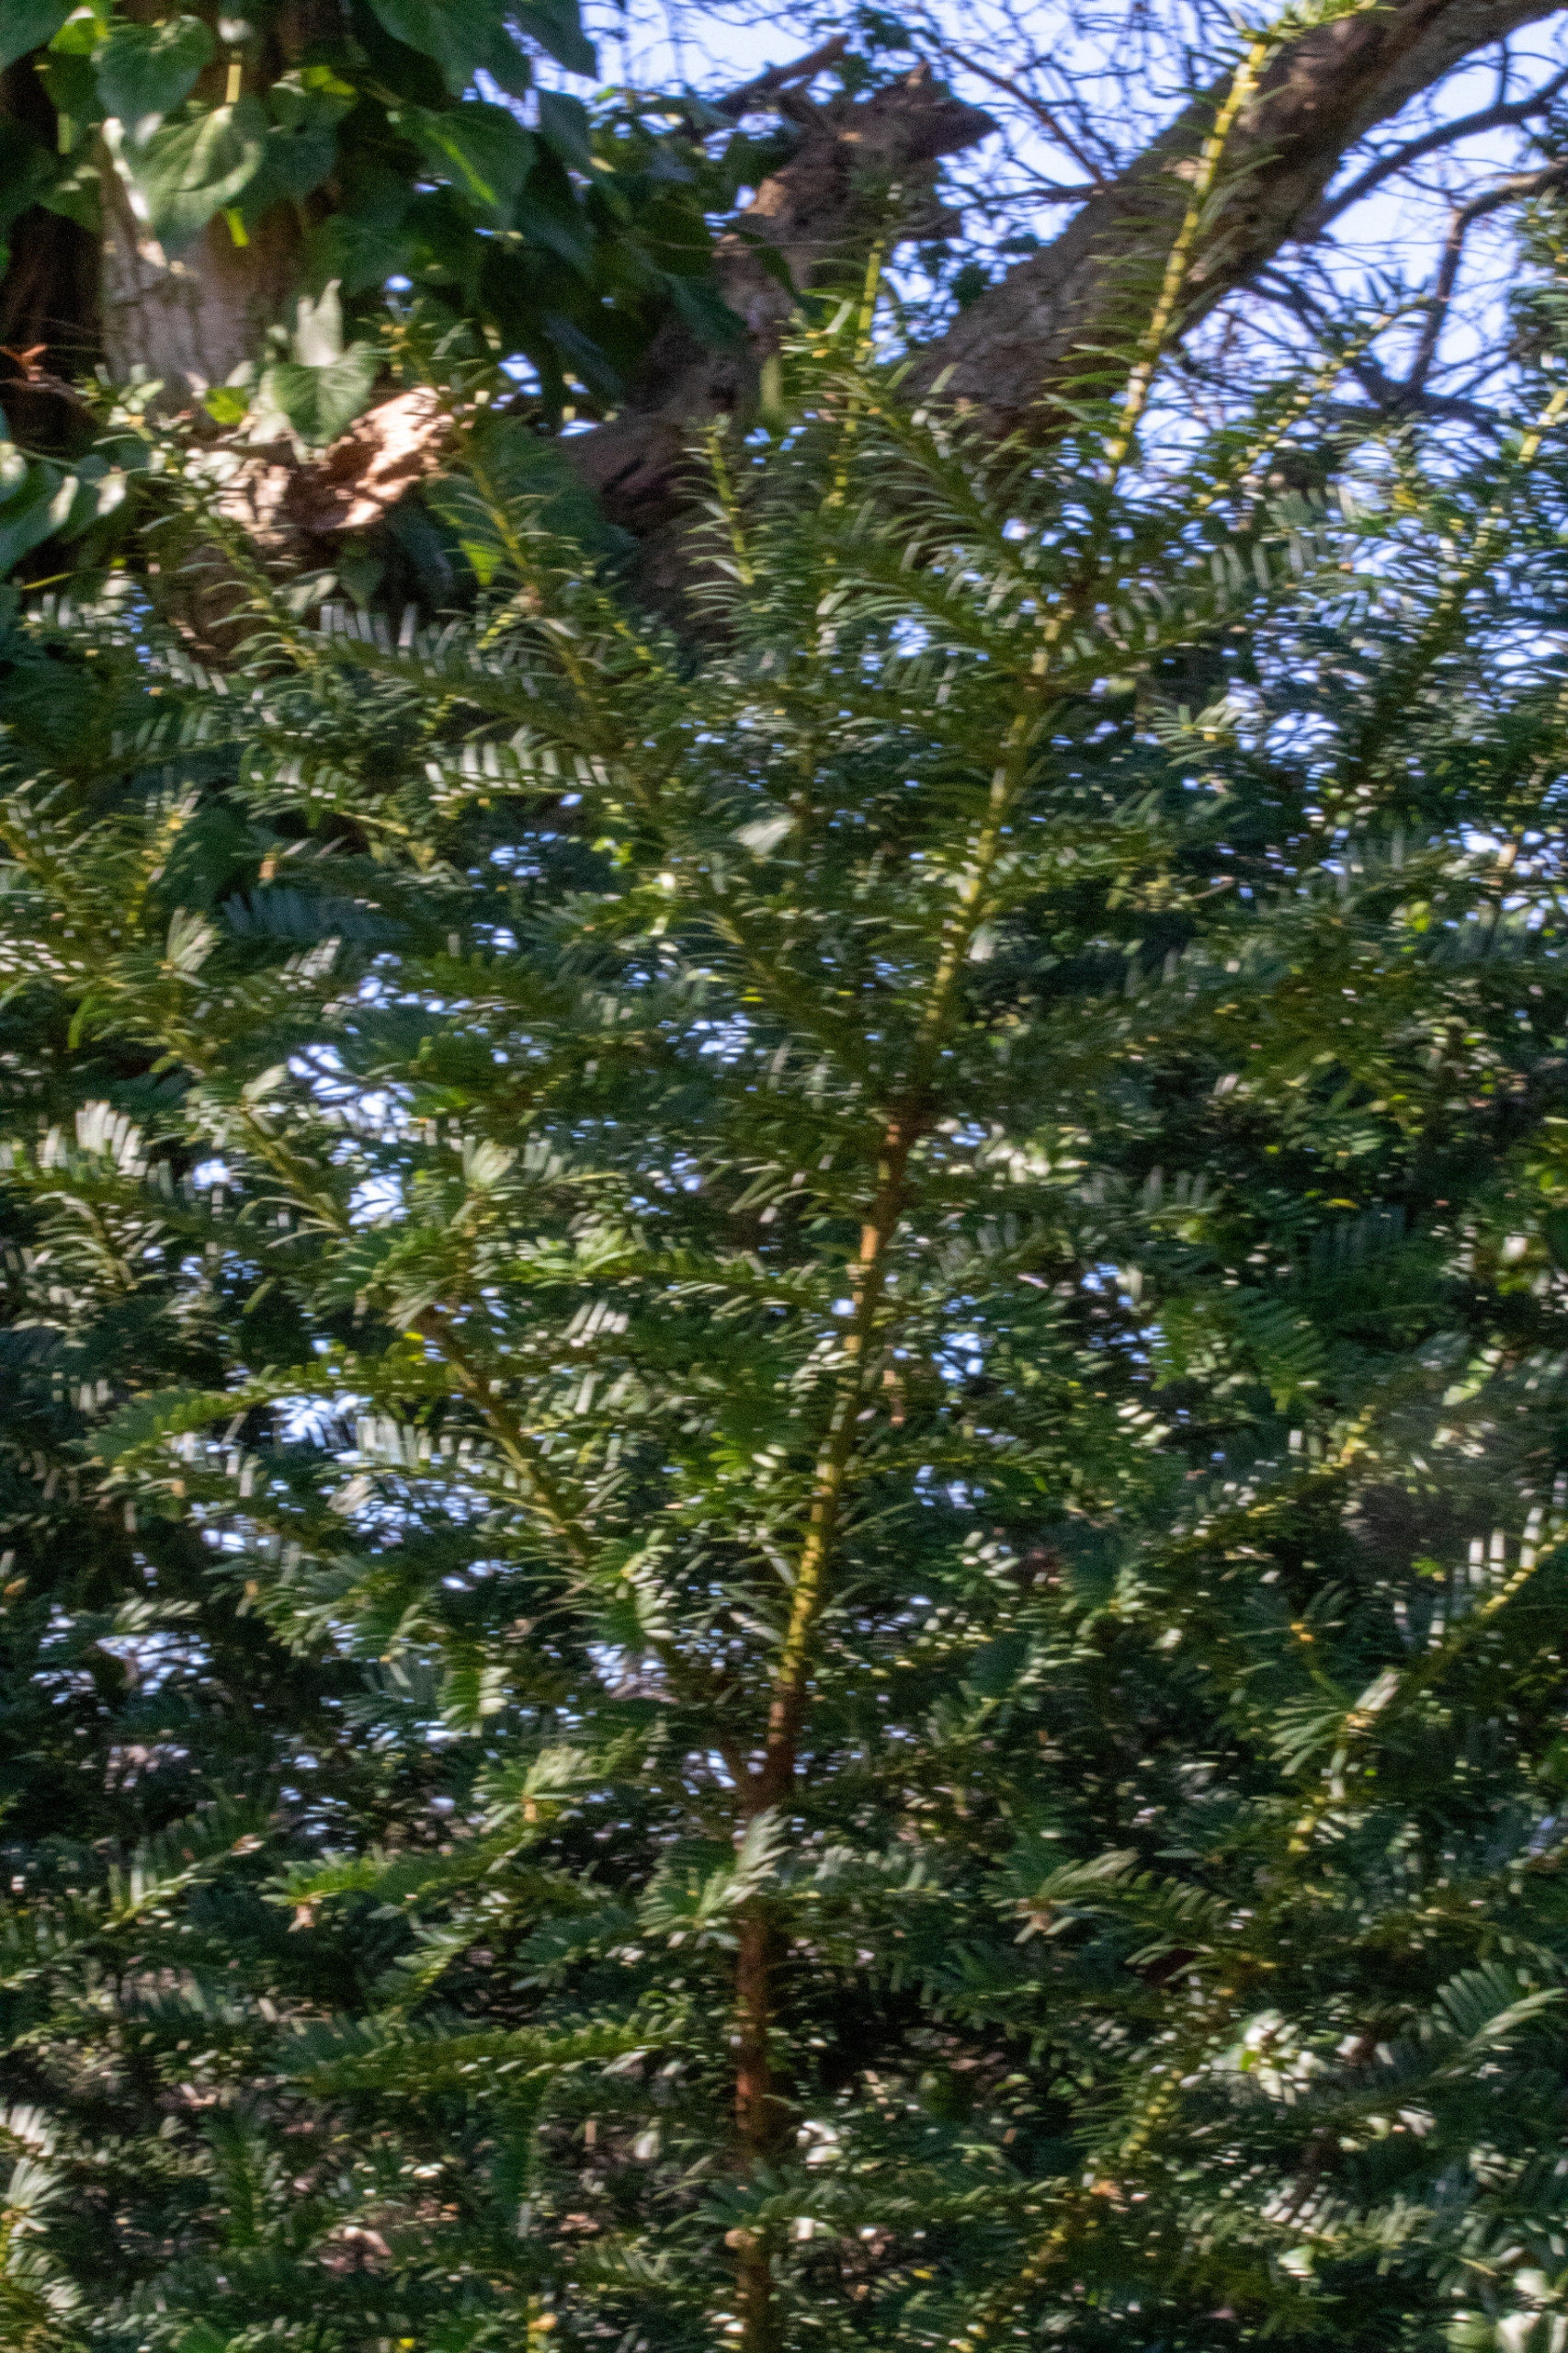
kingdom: Plantae
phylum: Tracheophyta
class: Pinopsida
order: Pinales
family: Taxaceae
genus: Taxus
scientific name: Taxus baccata
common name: Almindelig taks
